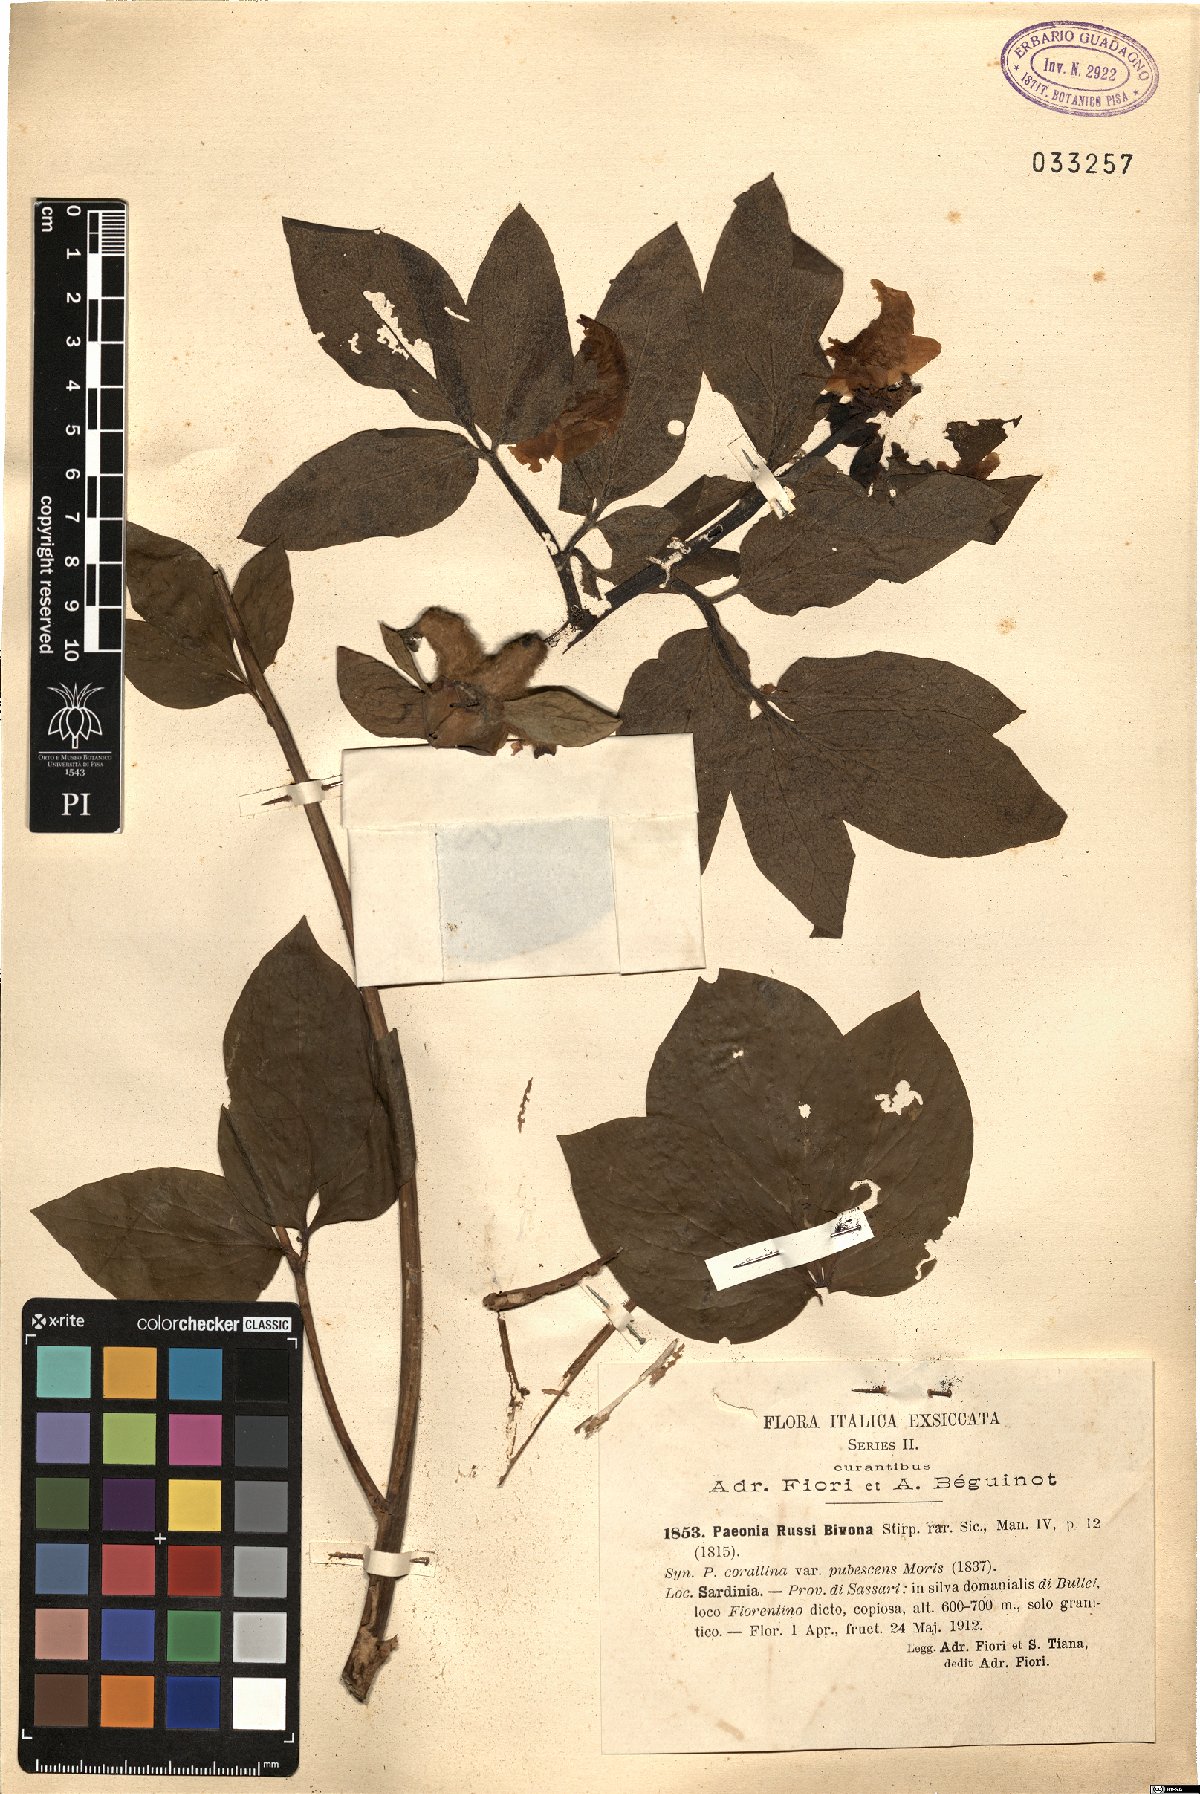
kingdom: Plantae
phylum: Tracheophyta
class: Magnoliopsida
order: Saxifragales
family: Paeoniaceae
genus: Paeonia
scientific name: Paeonia mascula
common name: Peony
